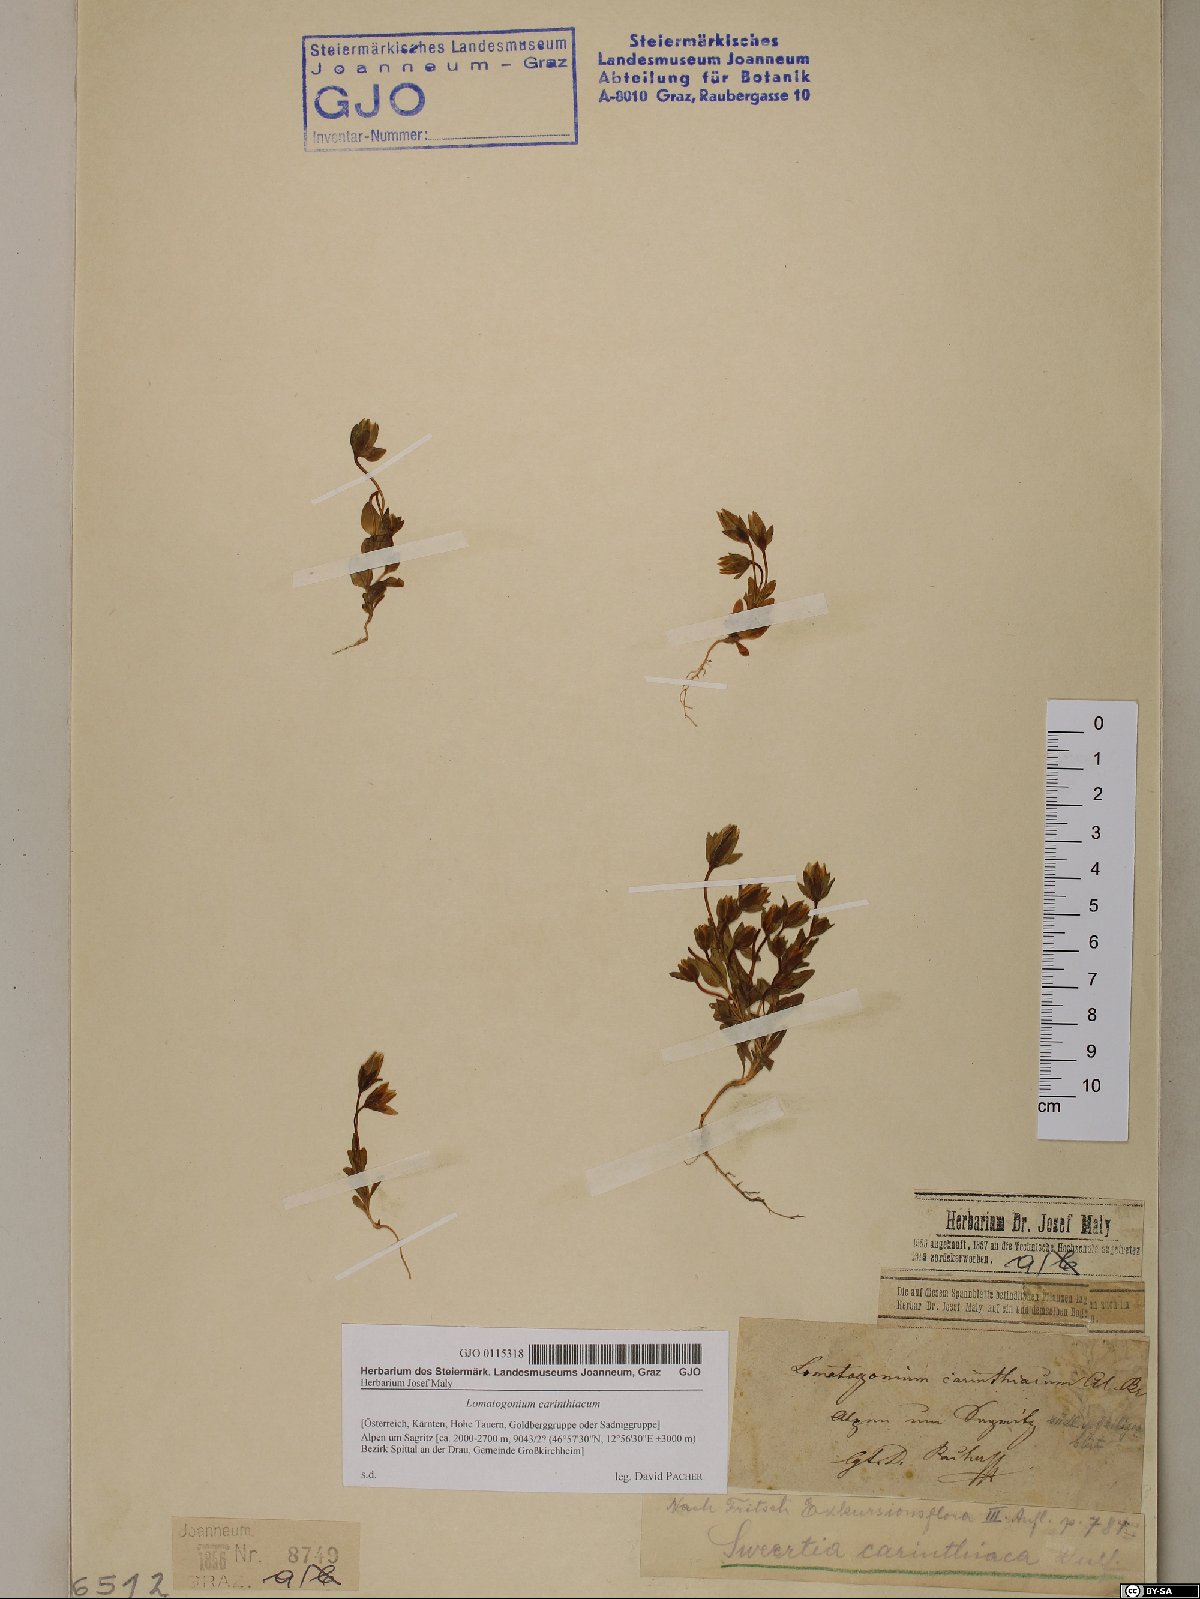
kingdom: Plantae
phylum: Tracheophyta
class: Magnoliopsida
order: Gentianales
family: Gentianaceae
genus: Lomatogonium
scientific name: Lomatogonium carinthiacum
